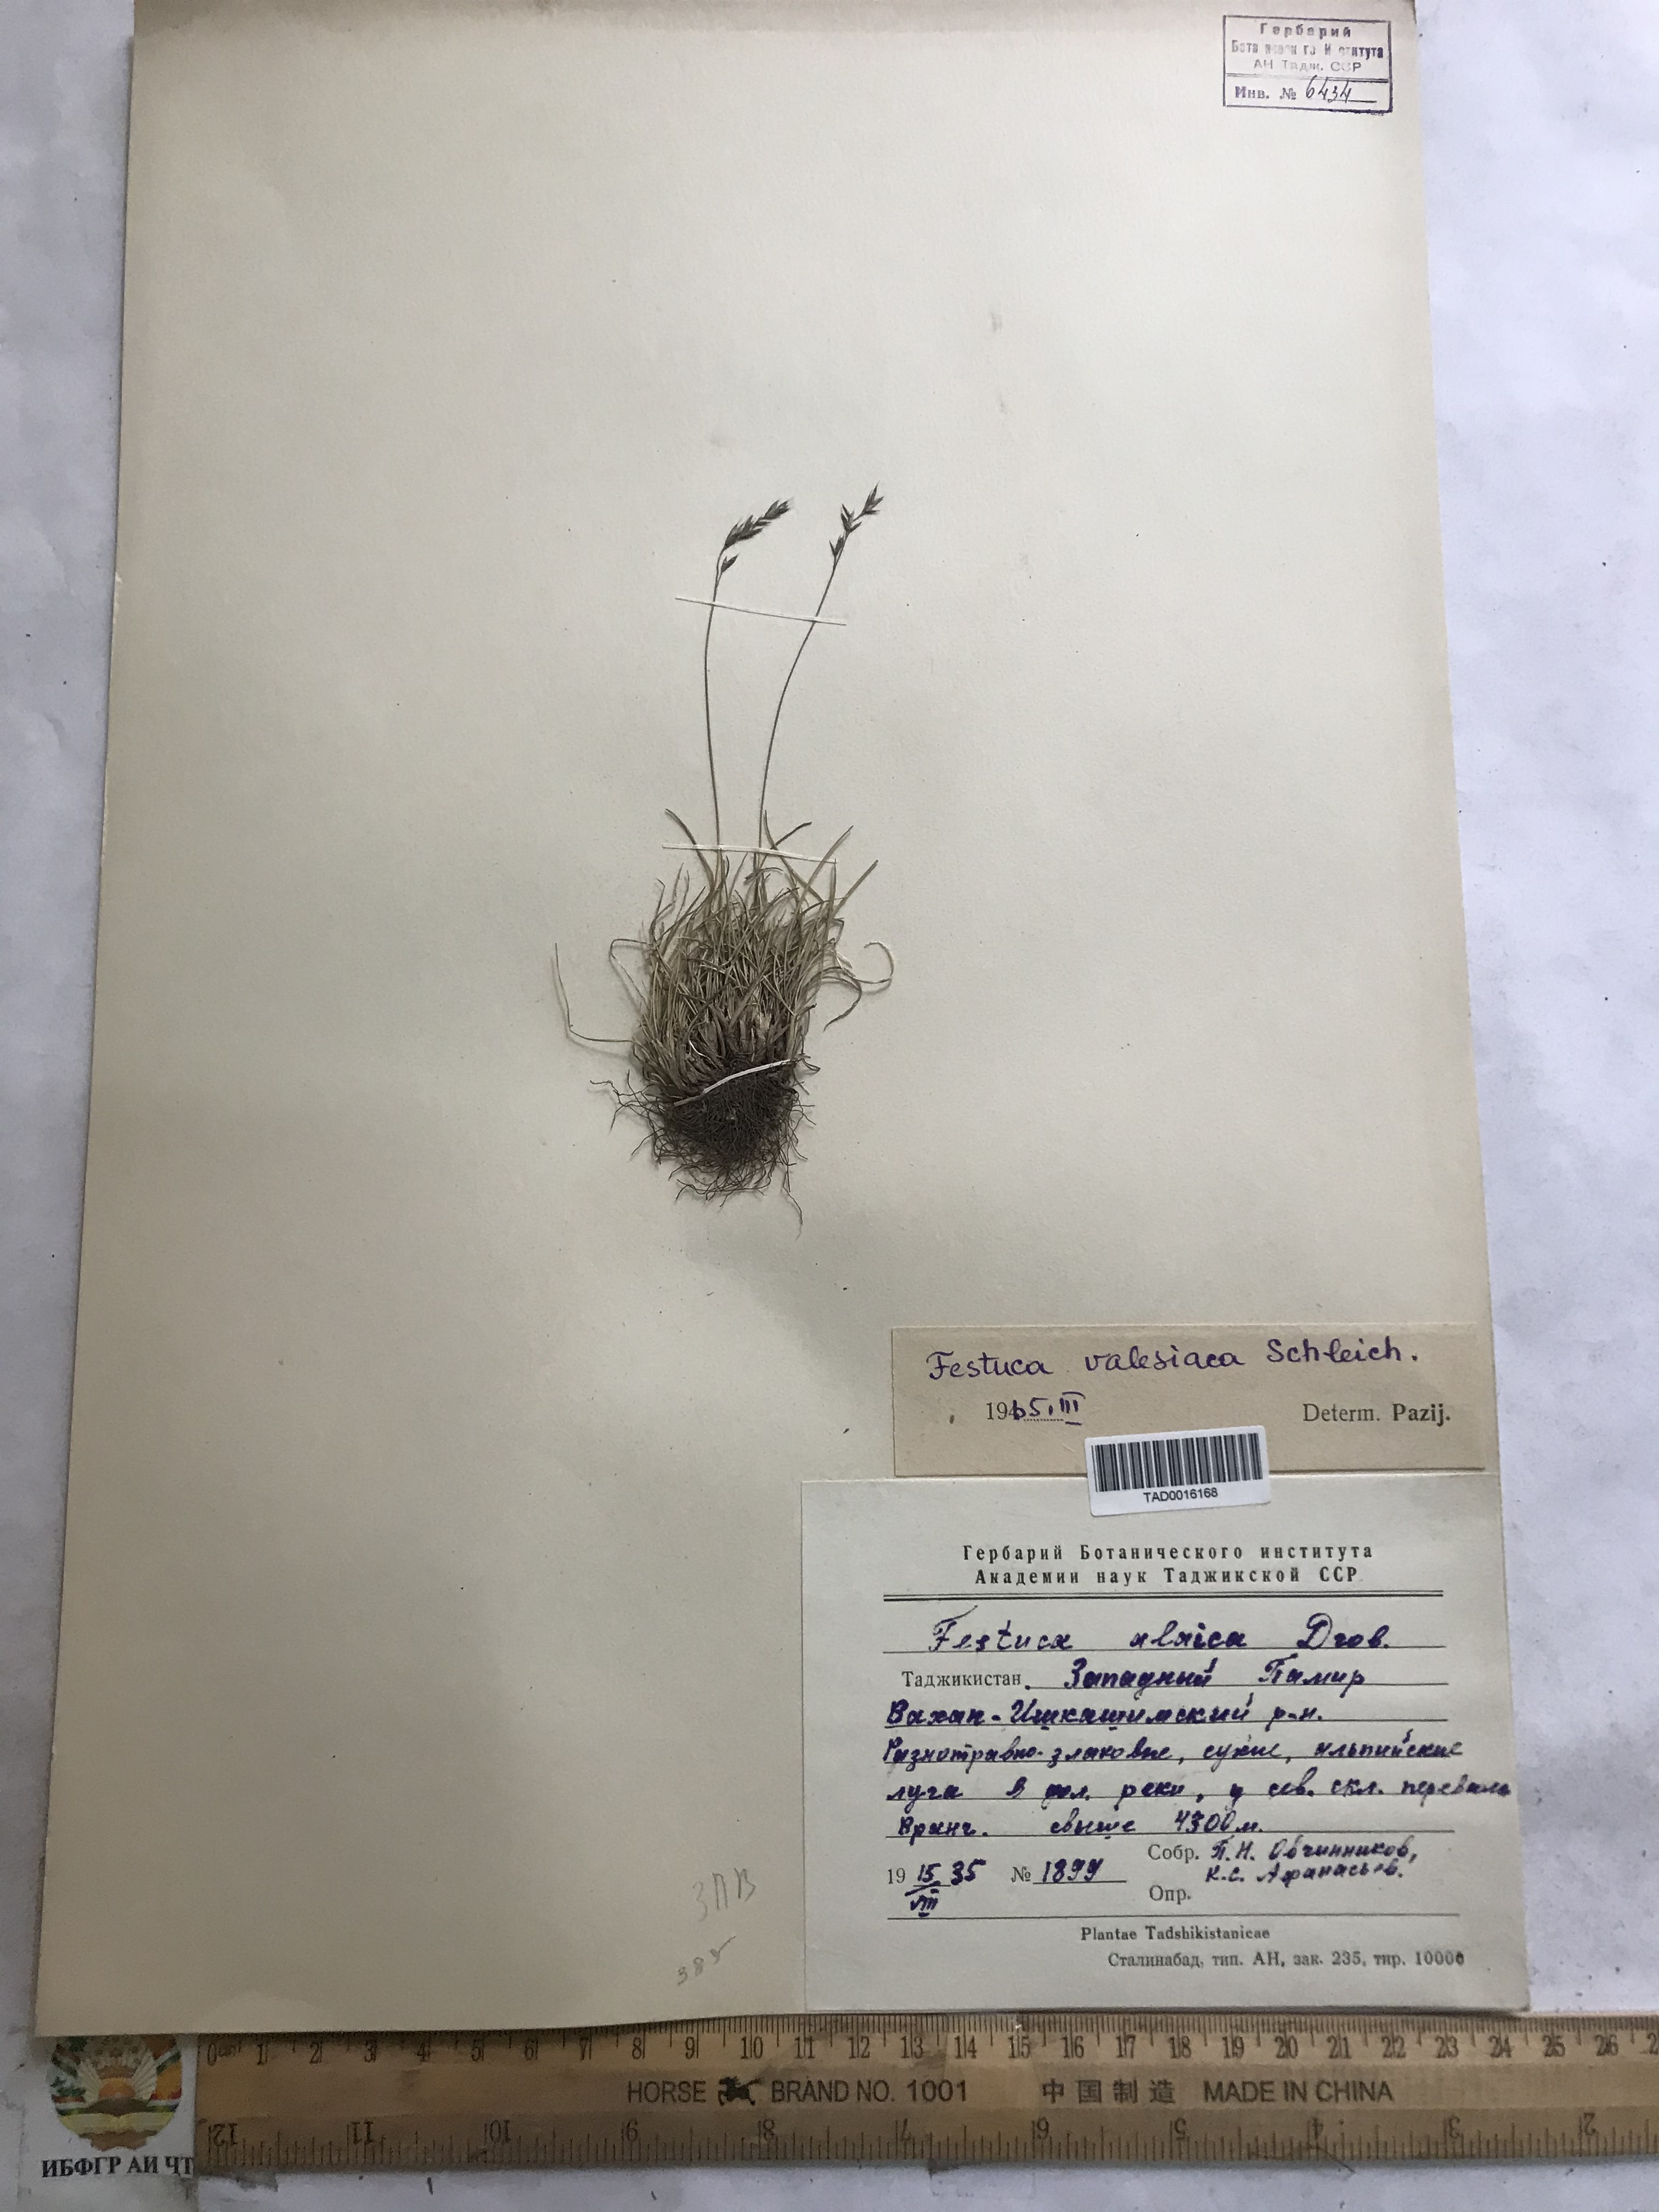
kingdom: Plantae
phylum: Tracheophyta
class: Liliopsida
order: Poales
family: Poaceae
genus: Festuca
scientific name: Festuca valesiaca
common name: Volga fescue
